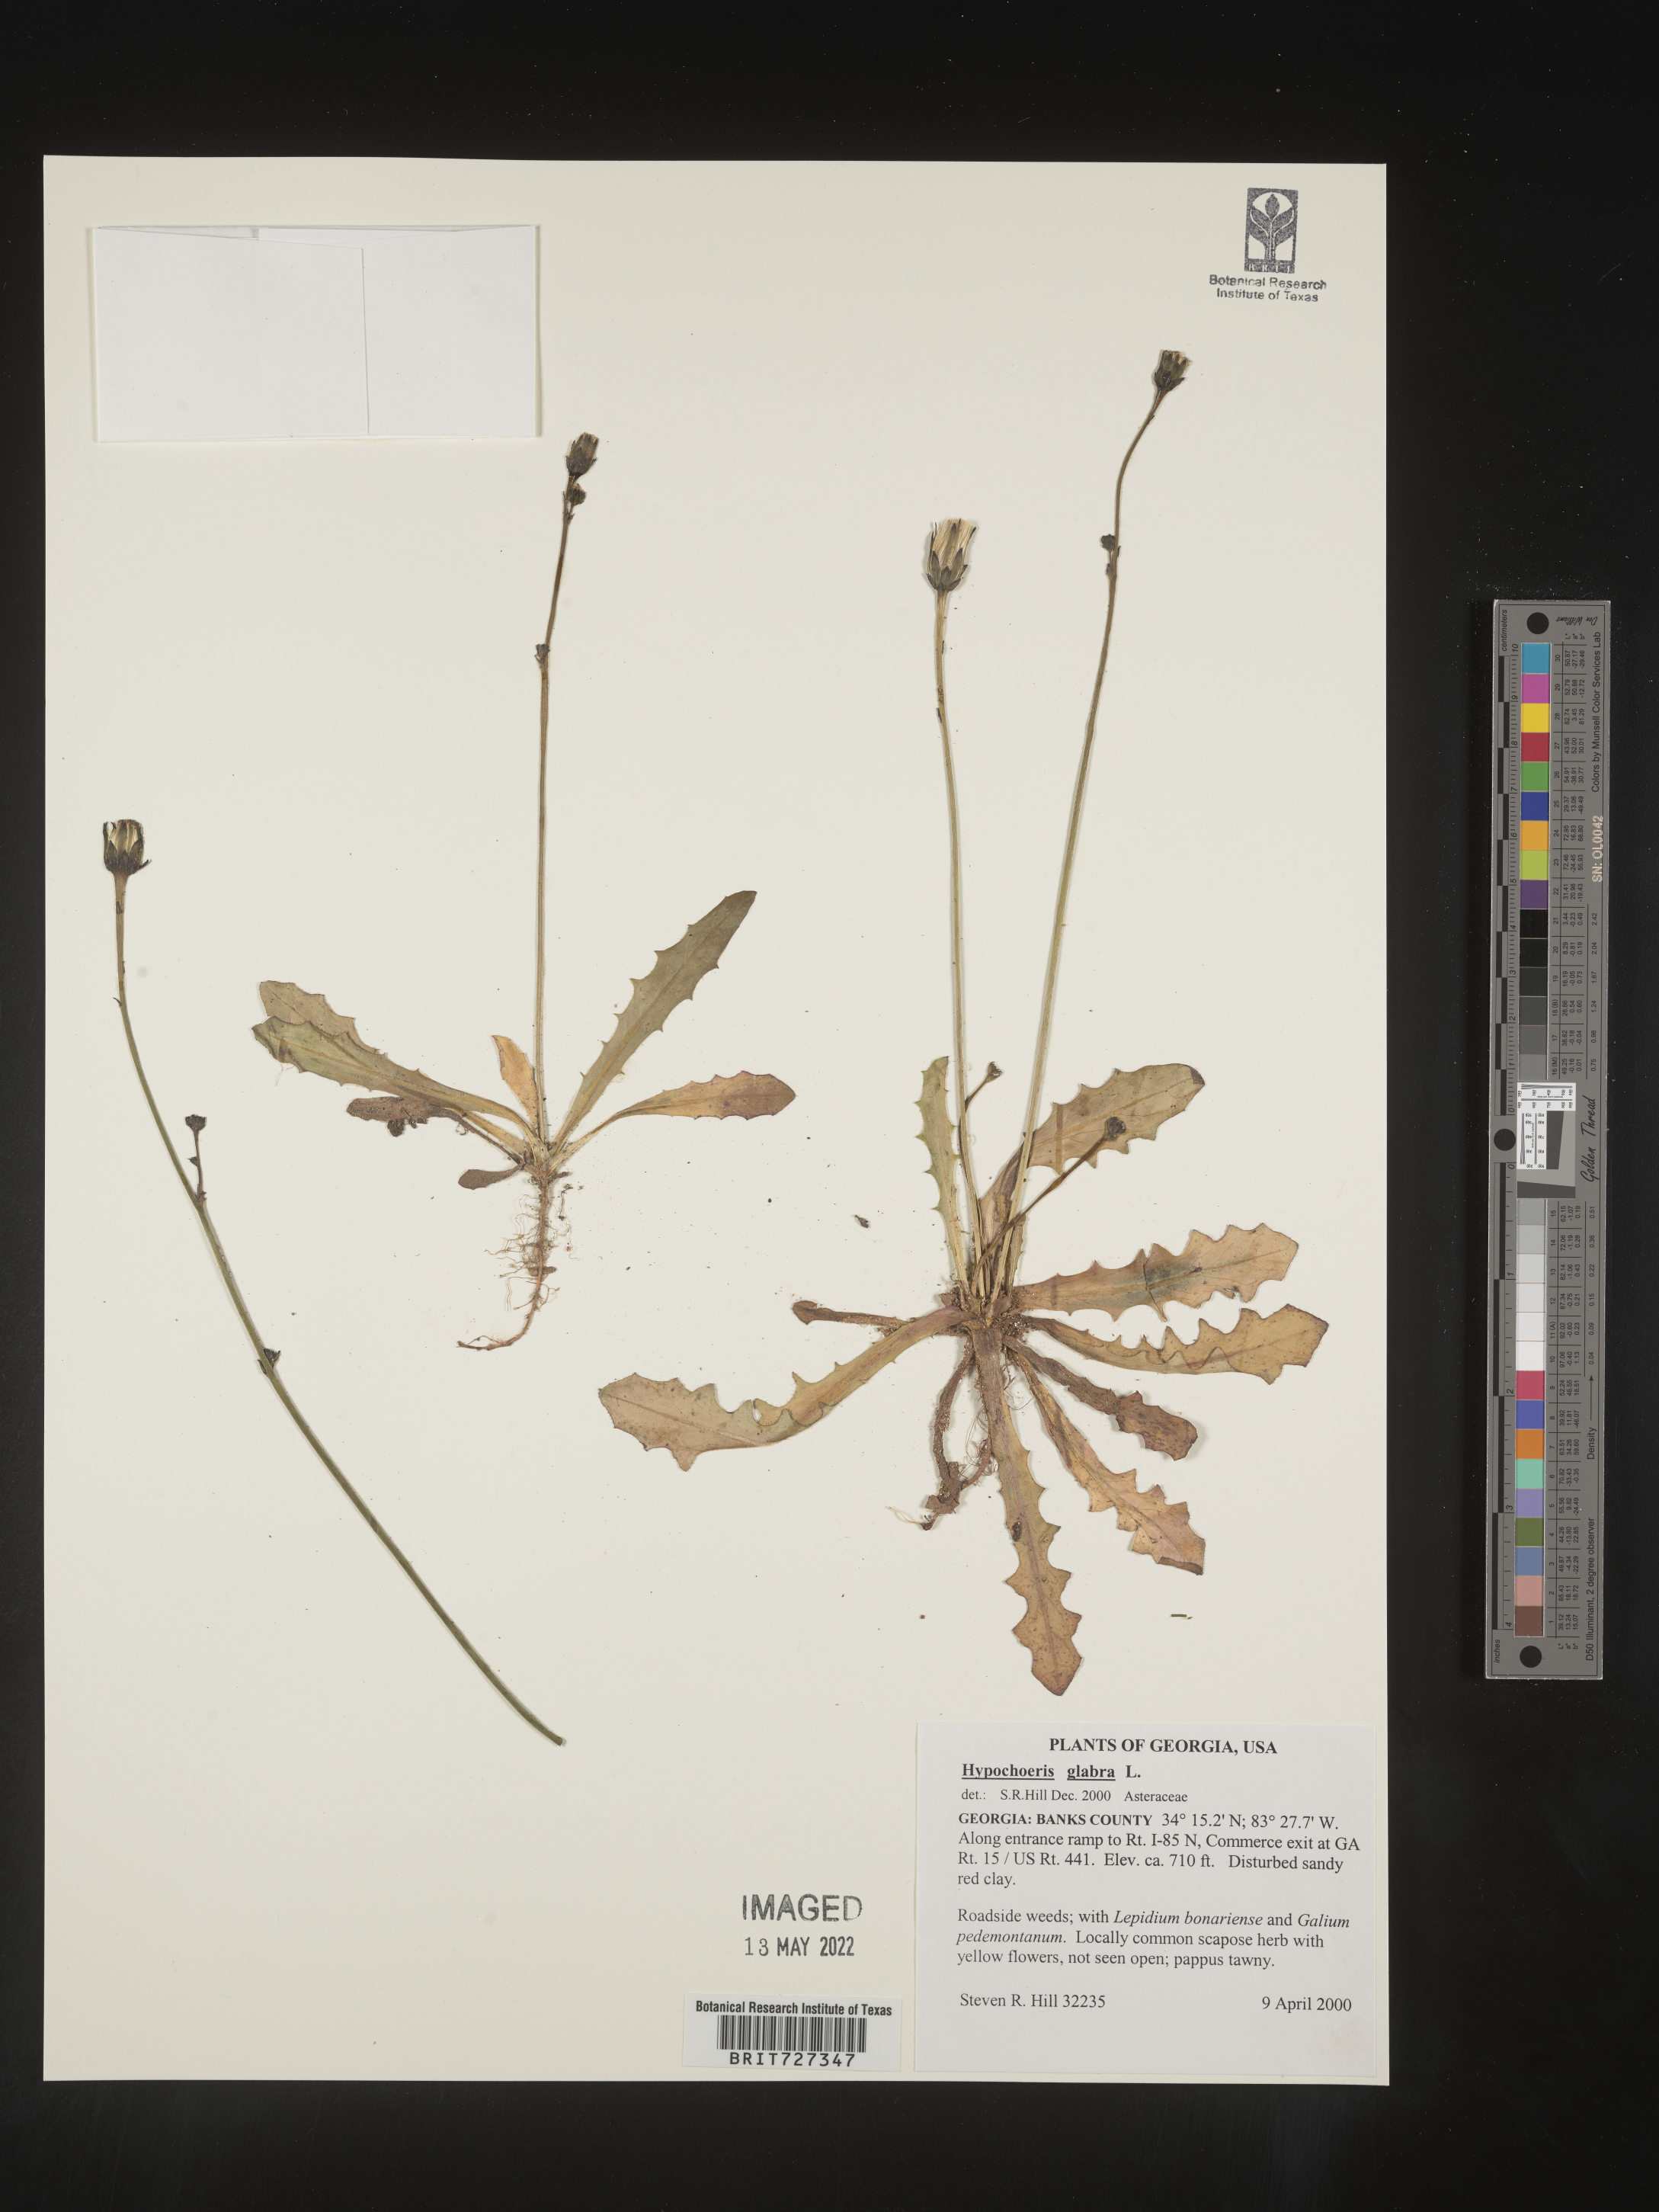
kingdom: Plantae
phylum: Tracheophyta
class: Magnoliopsida
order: Asterales
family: Asteraceae
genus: Hypochaeris
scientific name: Hypochaeris glabra
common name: Smooth catsear
